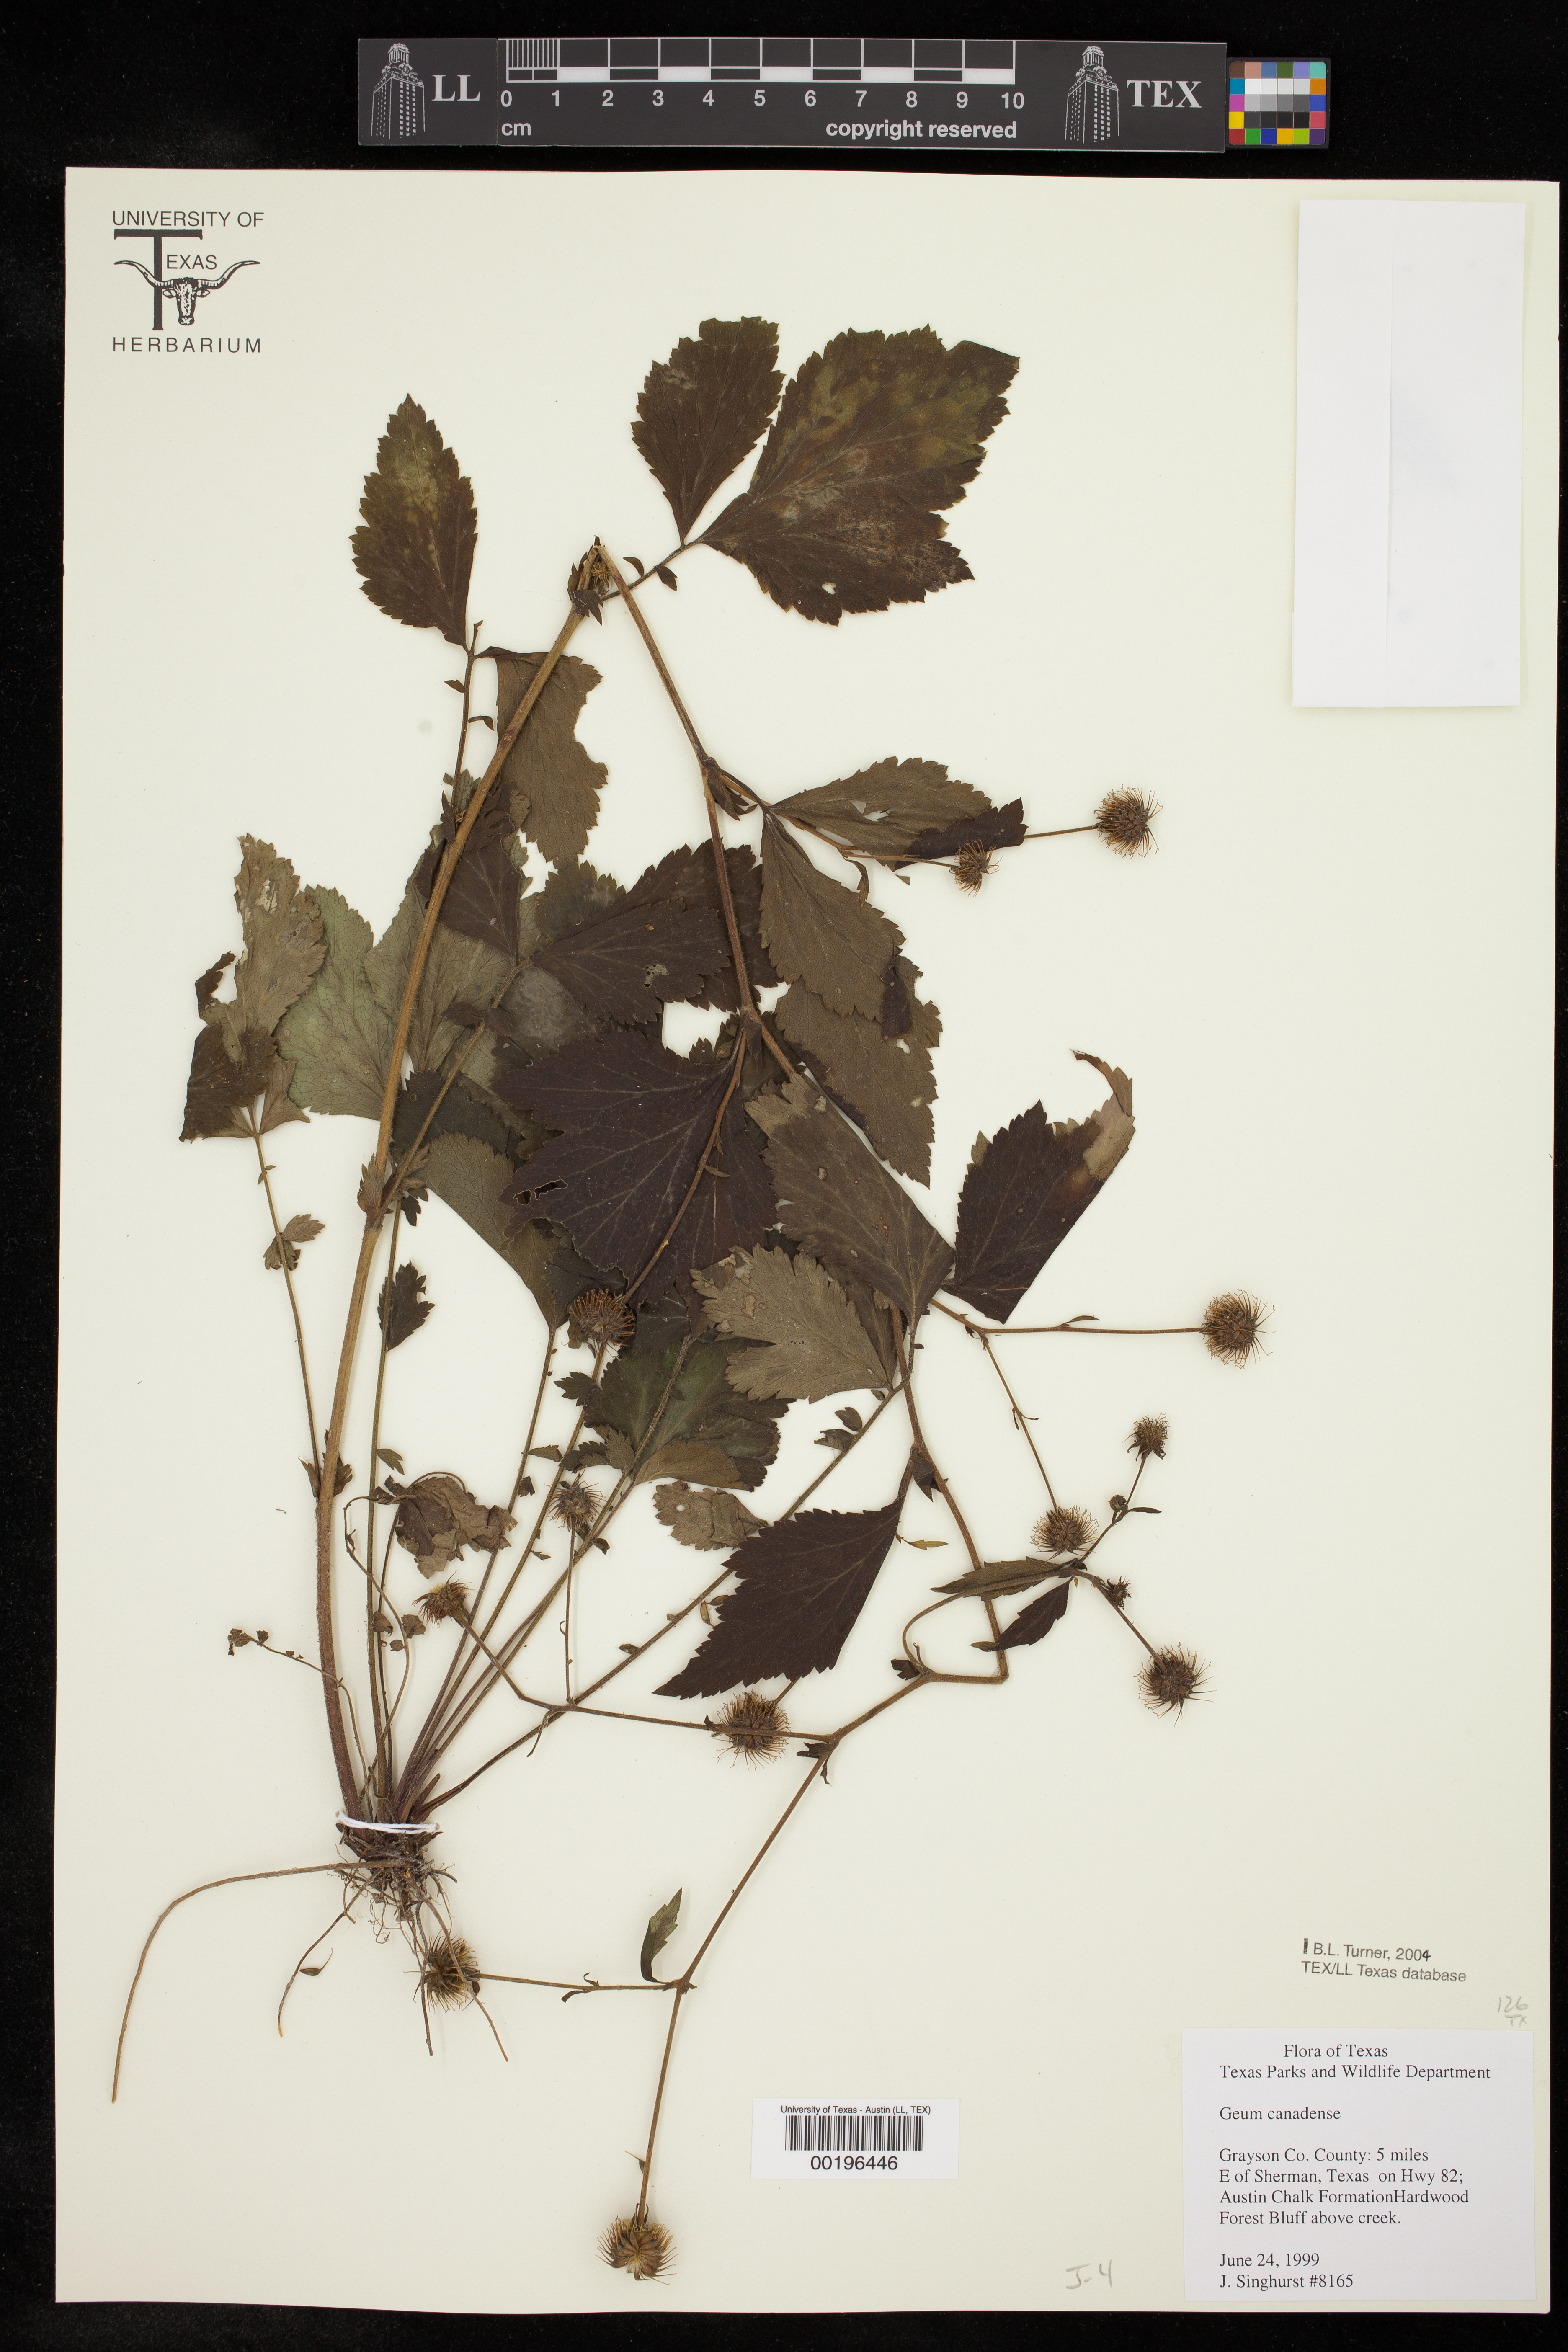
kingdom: Plantae
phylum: Tracheophyta
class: Magnoliopsida
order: Rosales
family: Rosaceae
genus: Geum
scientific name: Geum canadense
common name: White avens
